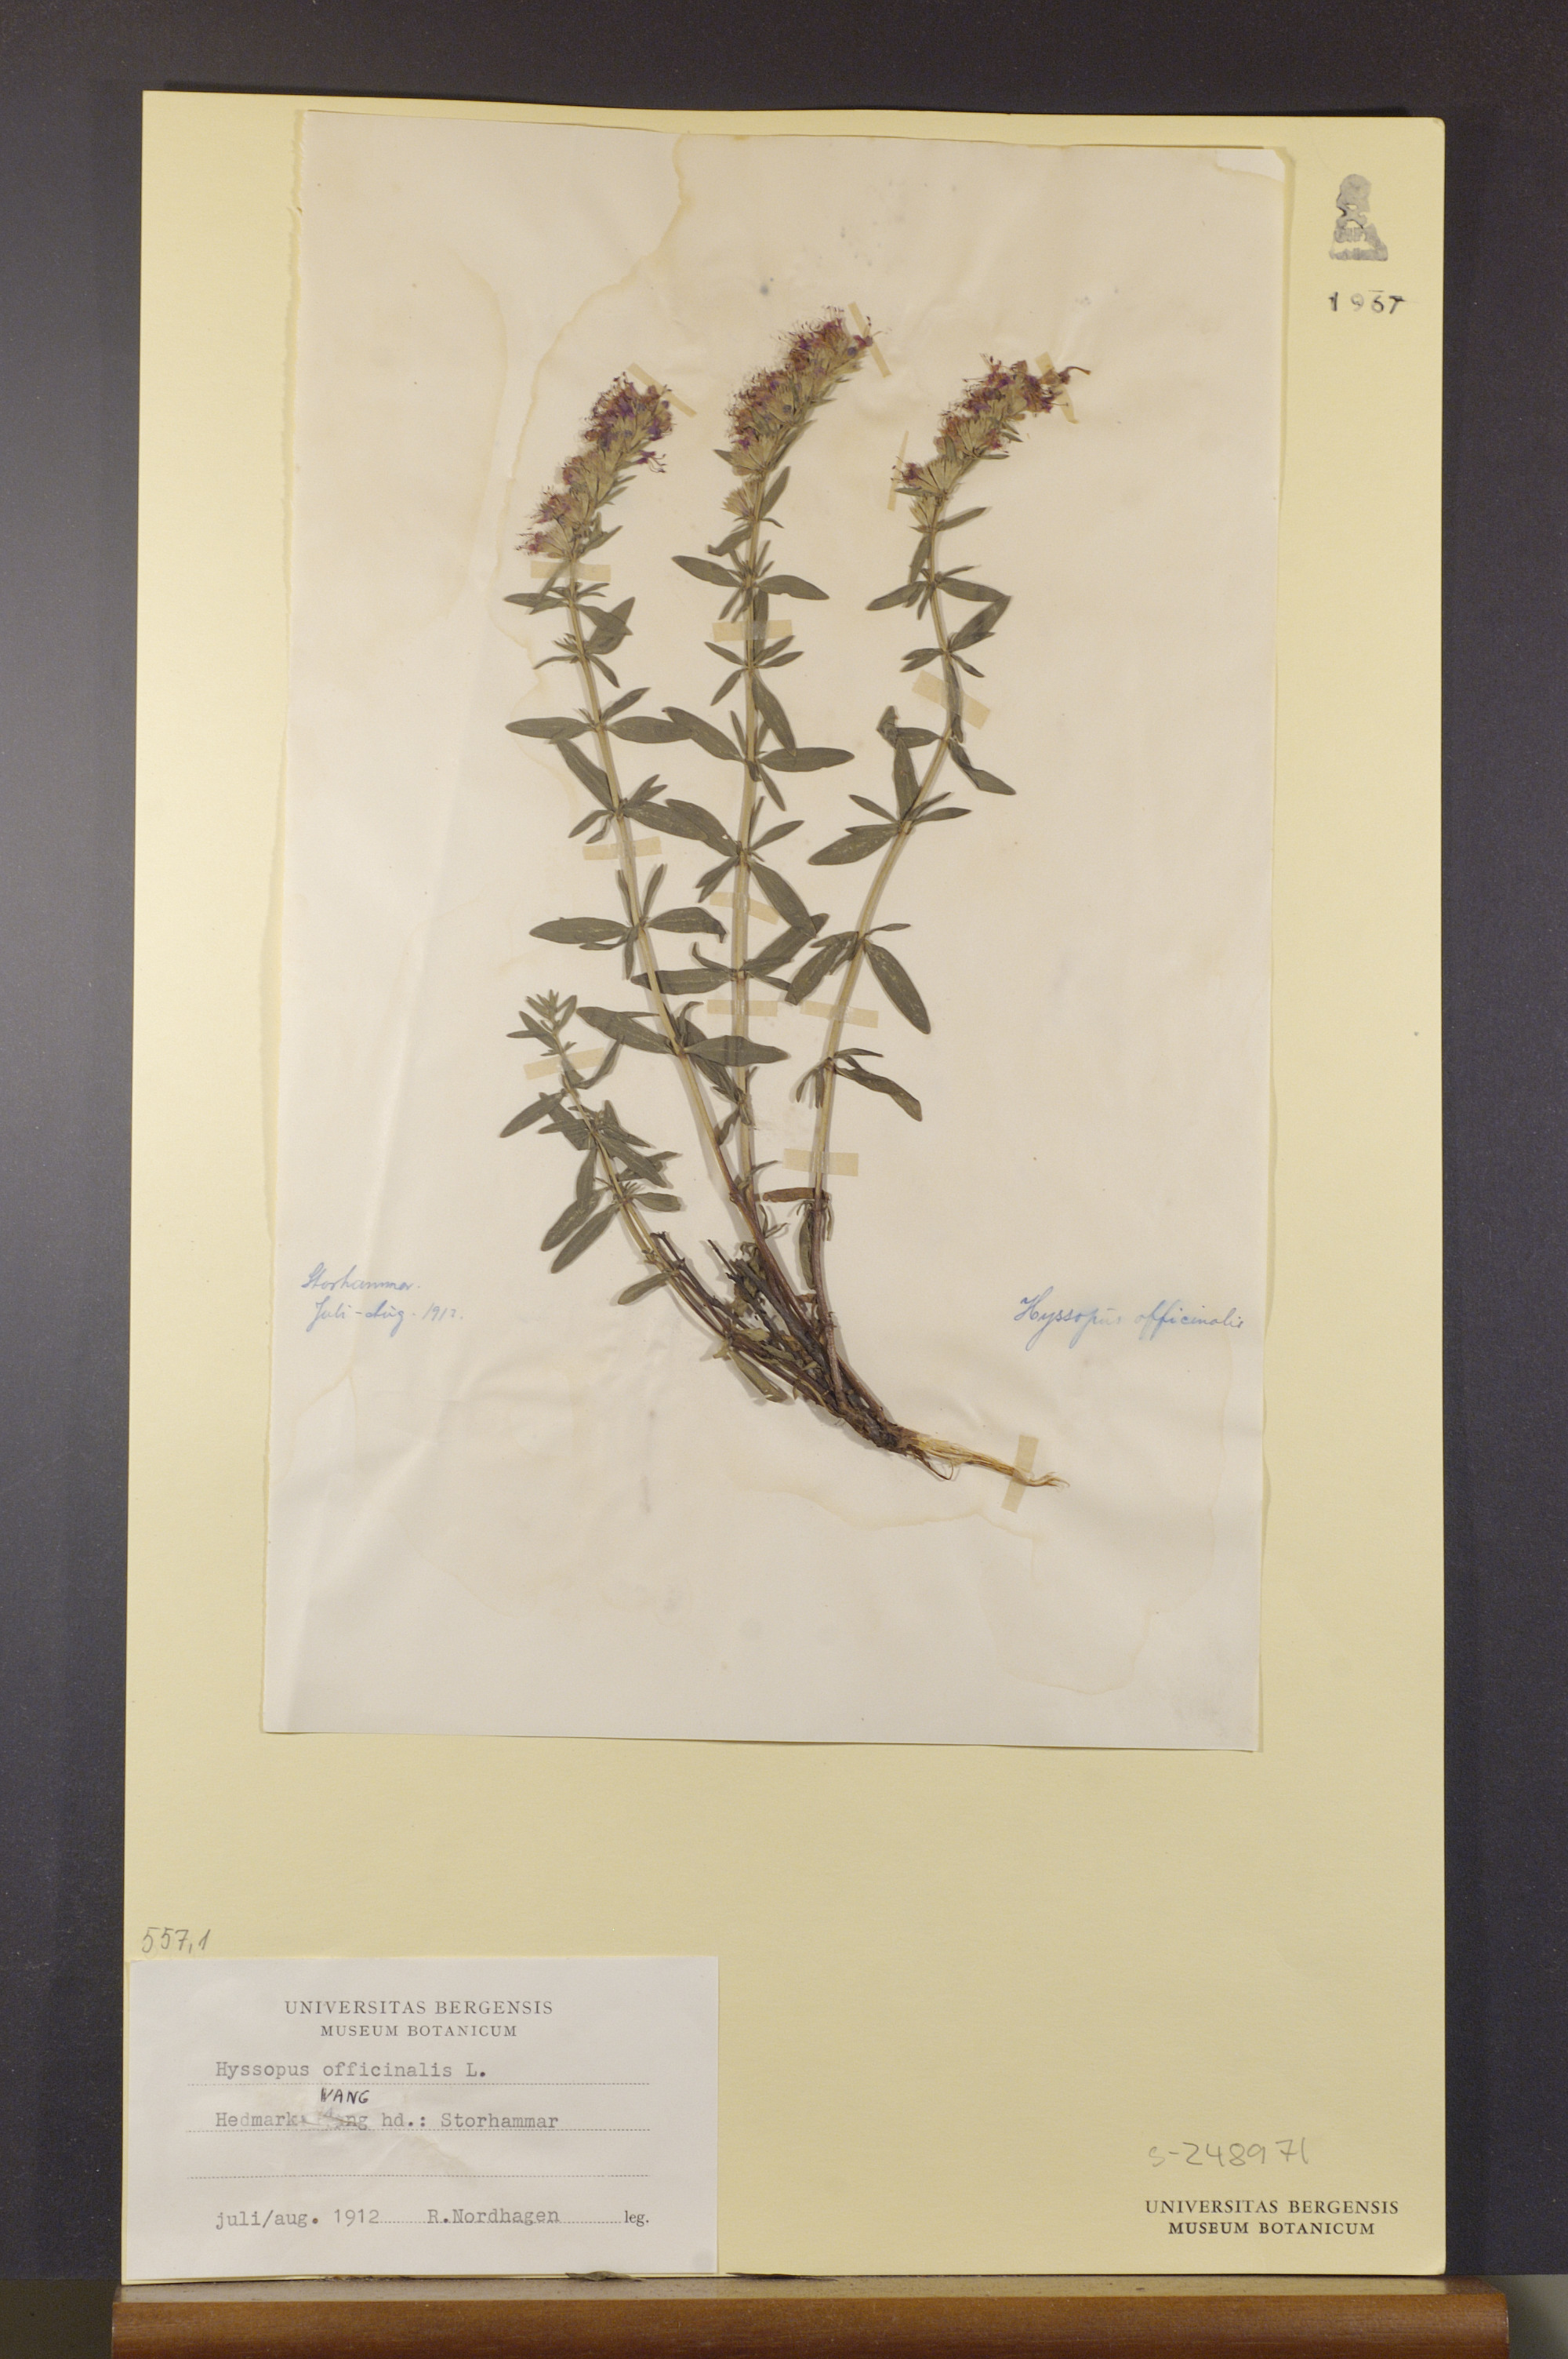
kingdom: Plantae
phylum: Tracheophyta
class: Magnoliopsida
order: Lamiales
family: Lamiaceae
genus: Hyssopus
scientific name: Hyssopus officinalis
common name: Hyssop
